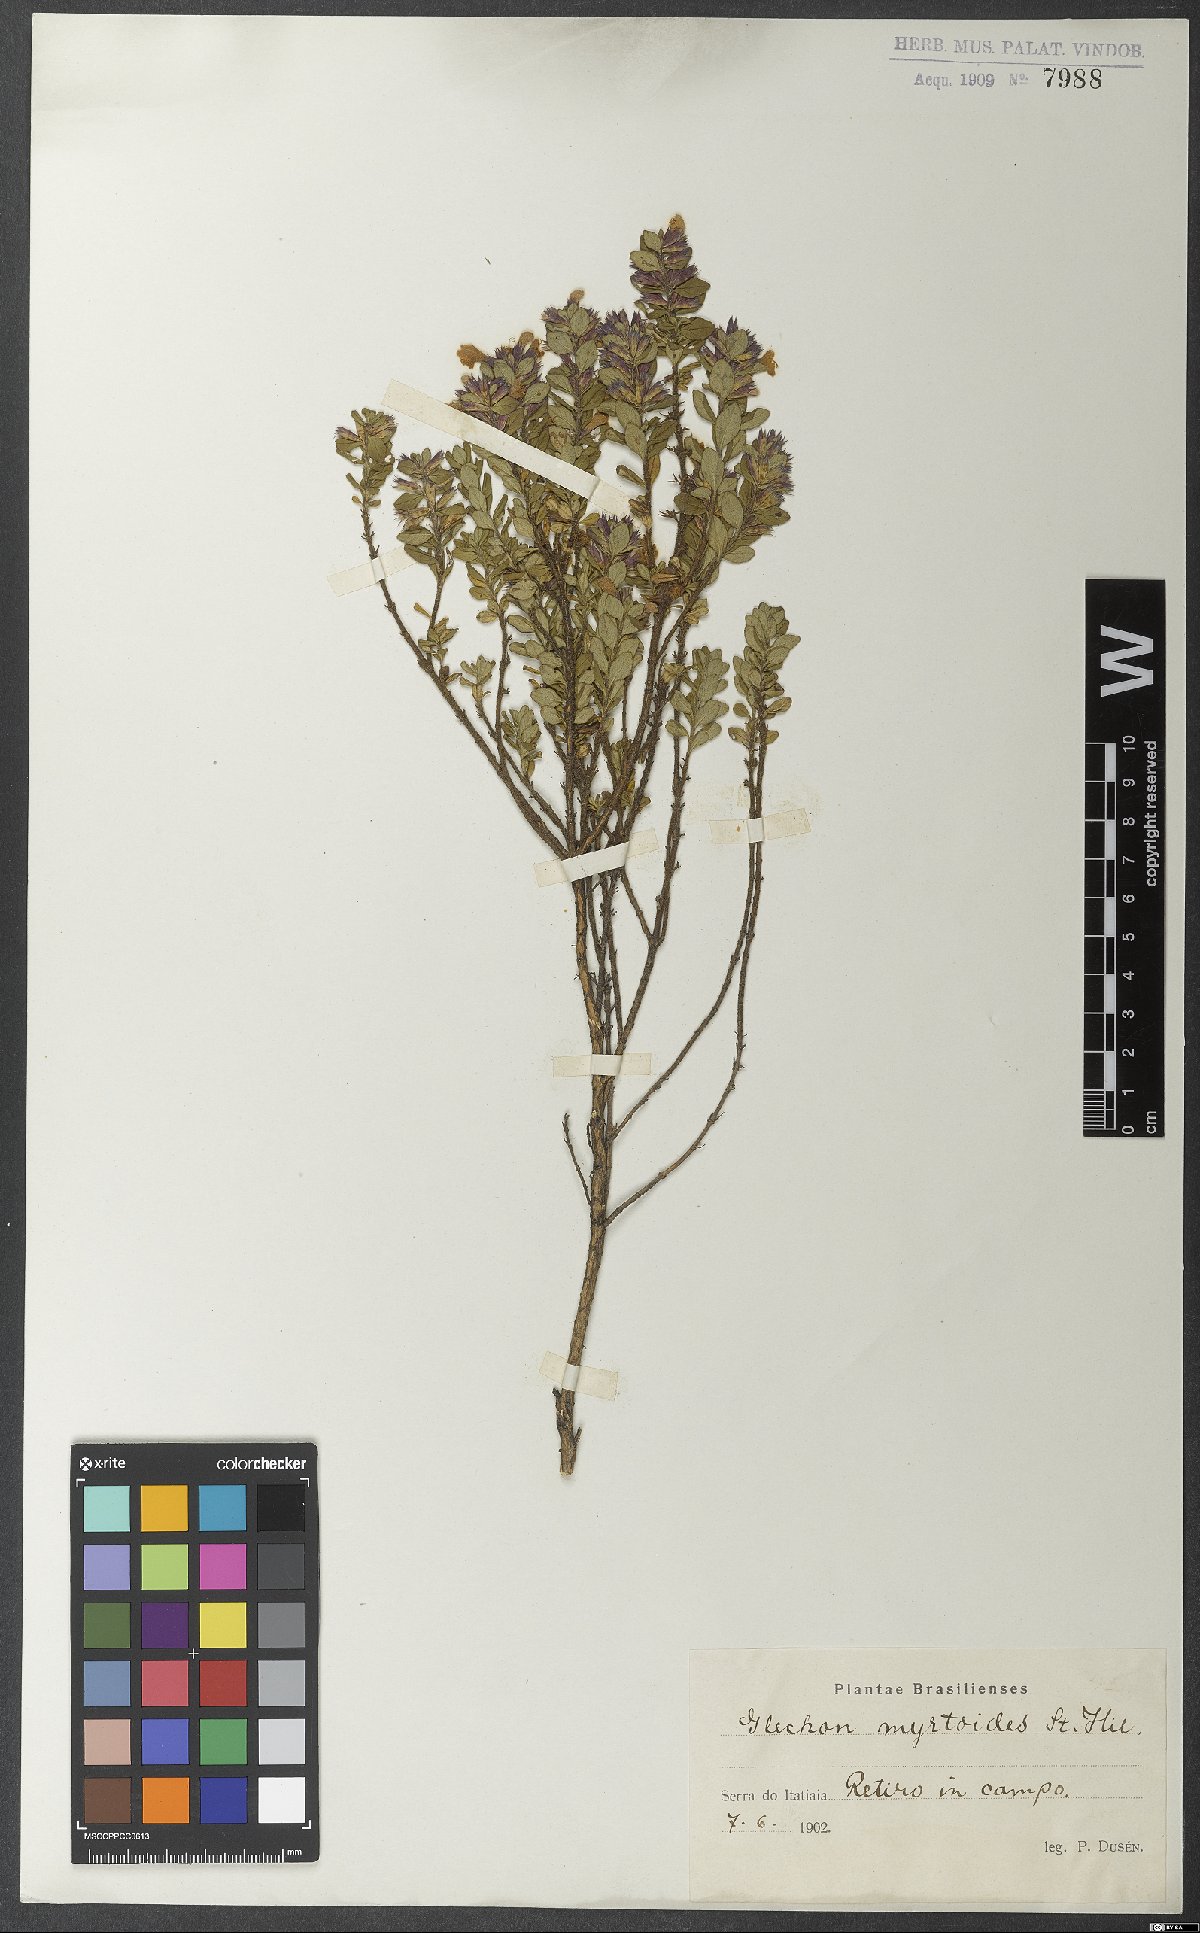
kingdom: Plantae
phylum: Tracheophyta
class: Magnoliopsida
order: Lamiales
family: Lamiaceae
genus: Hesperozygis
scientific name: Hesperozygis myrtoides
